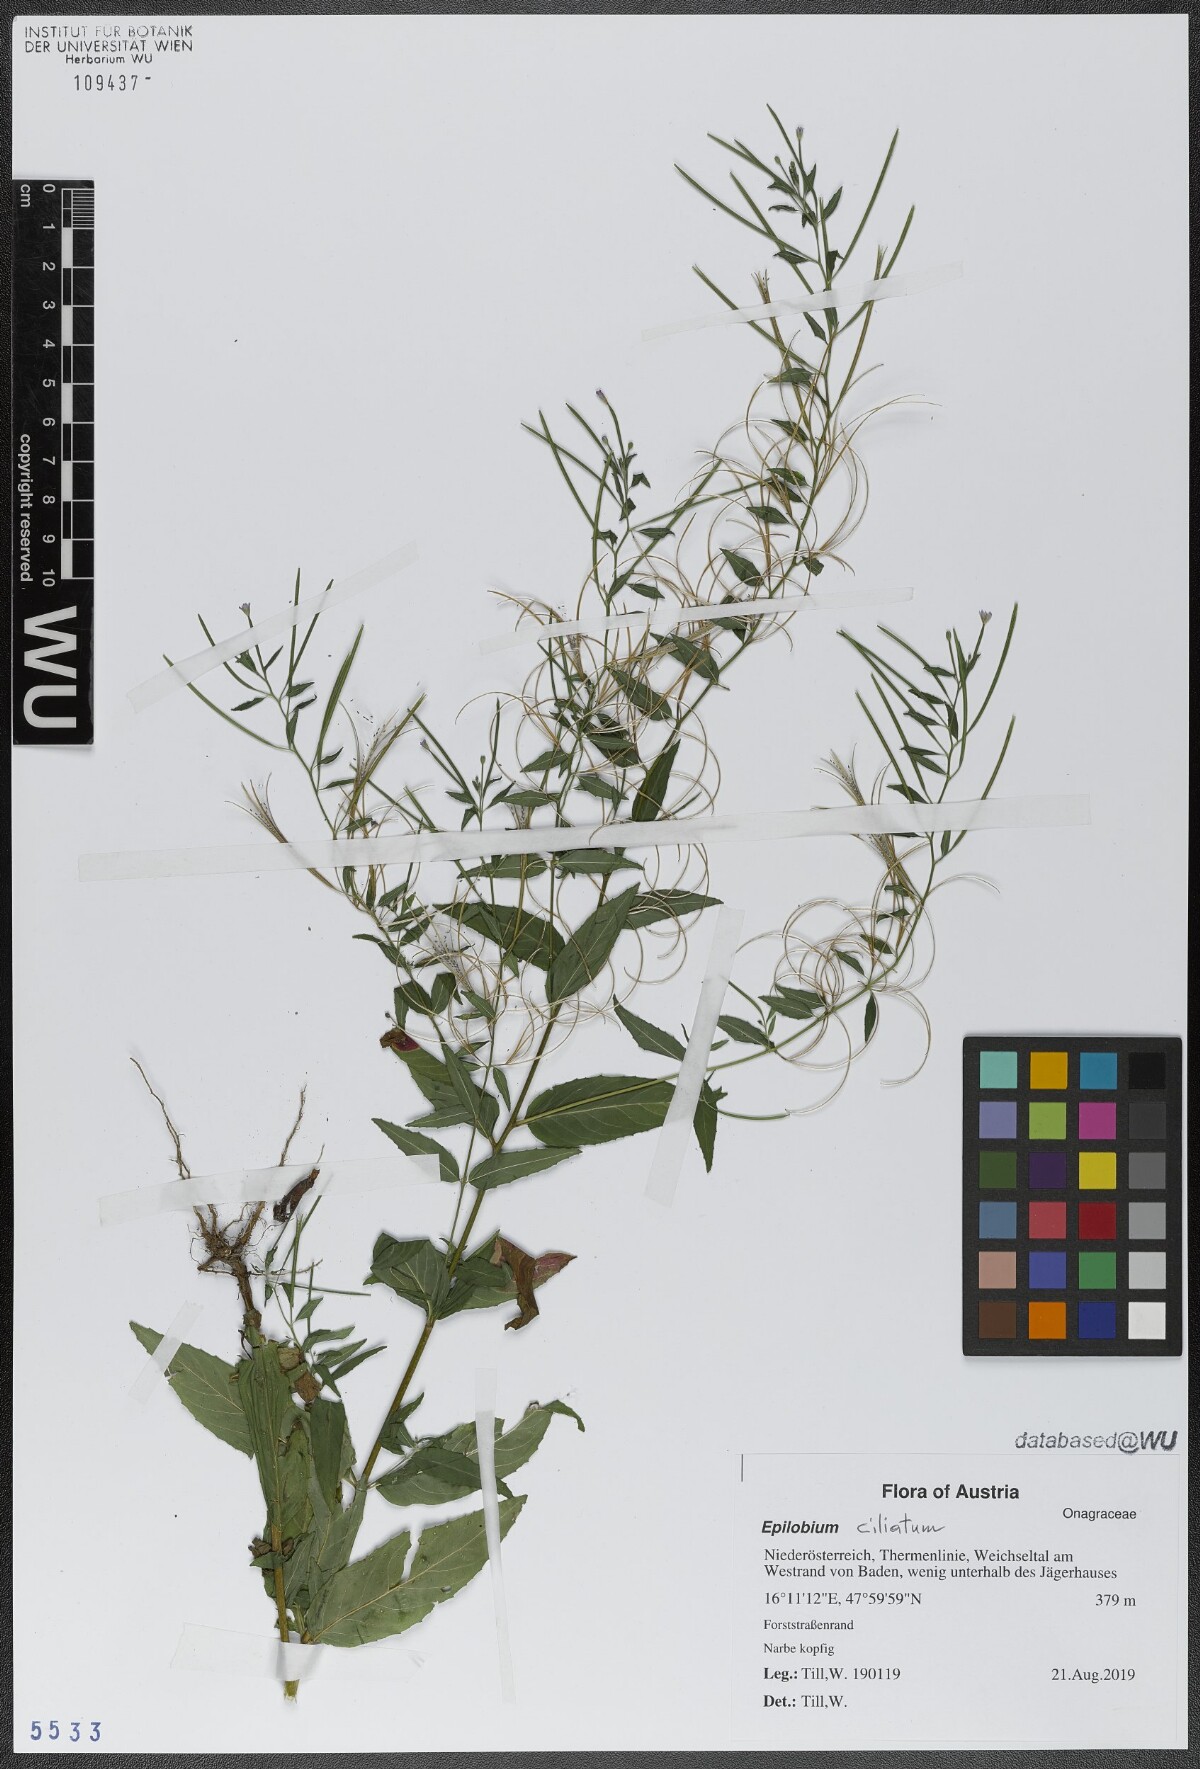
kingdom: Plantae
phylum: Tracheophyta
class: Magnoliopsida
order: Myrtales
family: Onagraceae
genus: Epilobium
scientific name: Epilobium ciliatum
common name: American willowherb
